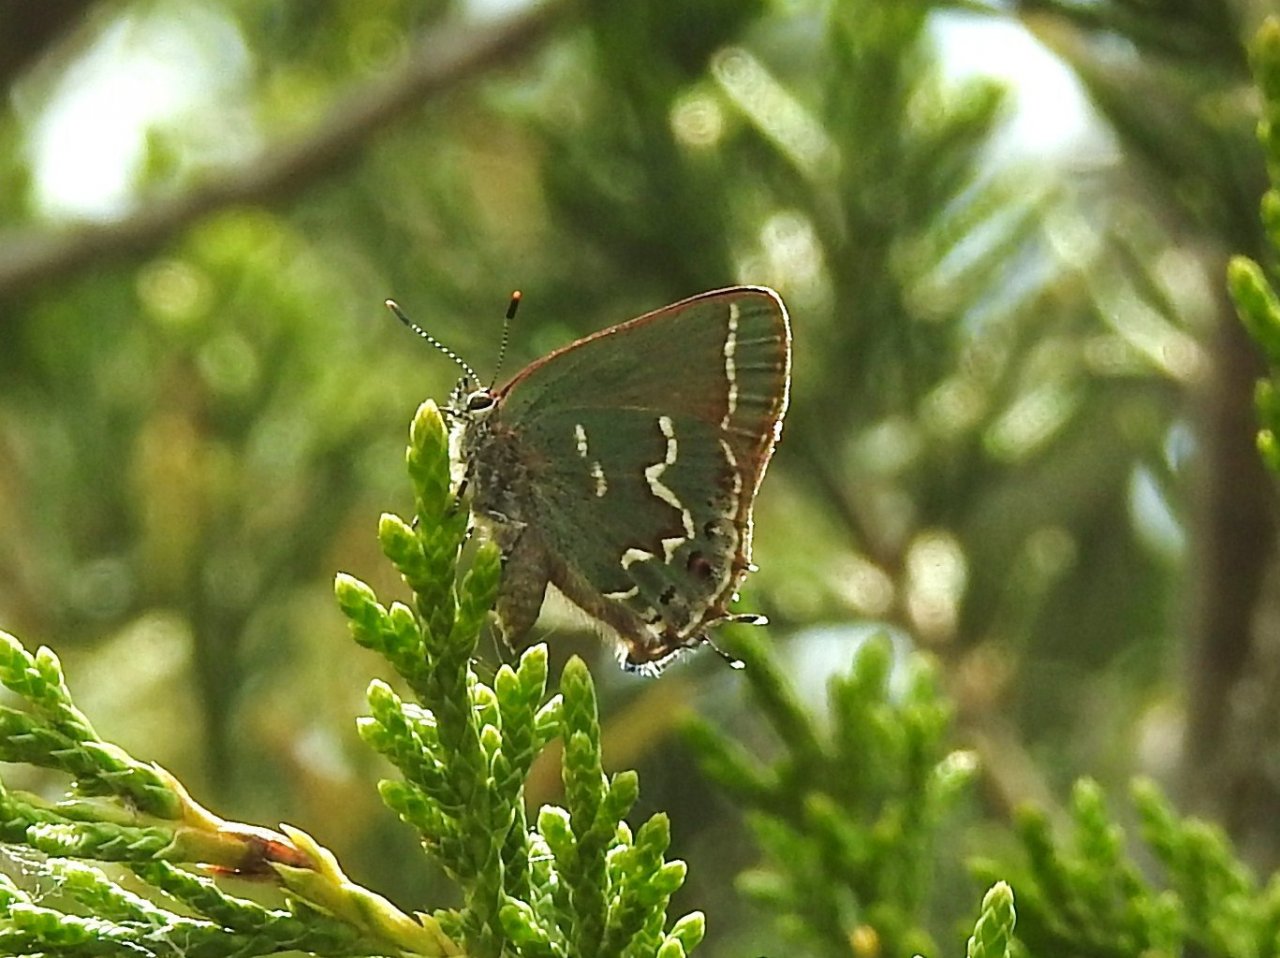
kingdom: Animalia
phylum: Arthropoda
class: Insecta
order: Lepidoptera
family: Lycaenidae
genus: Mitoura
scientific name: Mitoura gryneus
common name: Juniper Hairstreak
